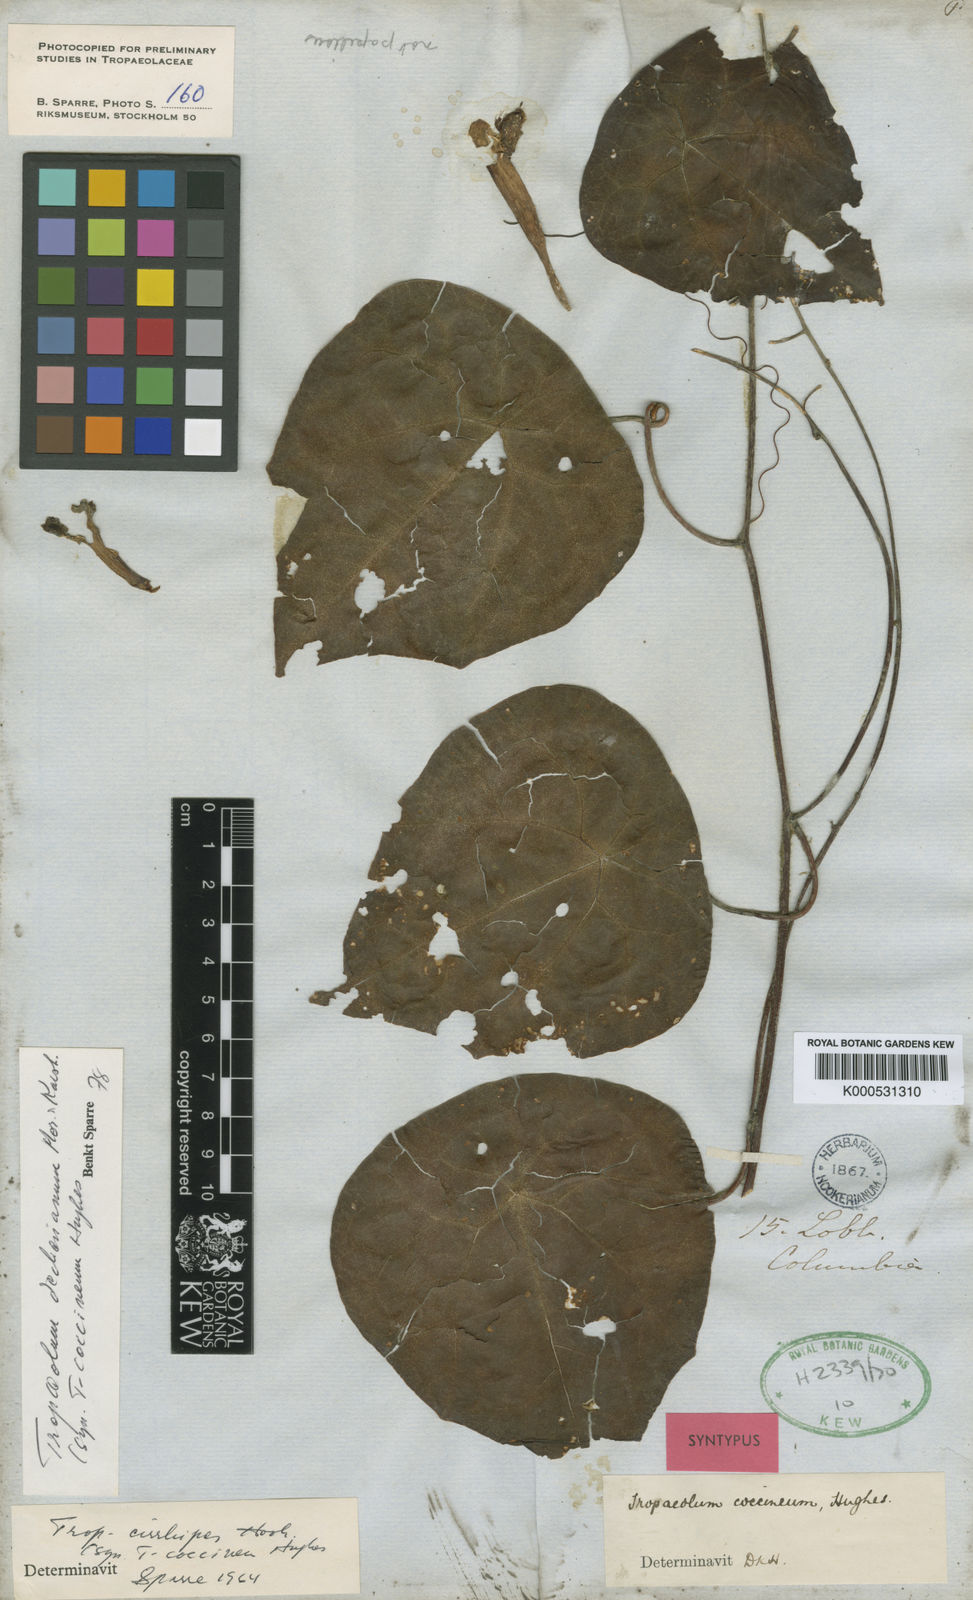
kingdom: Plantae
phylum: Tracheophyta
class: Magnoliopsida
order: Brassicales
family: Tropaeolaceae
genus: Tropaeolum
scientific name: Tropaeolum deckerianum
